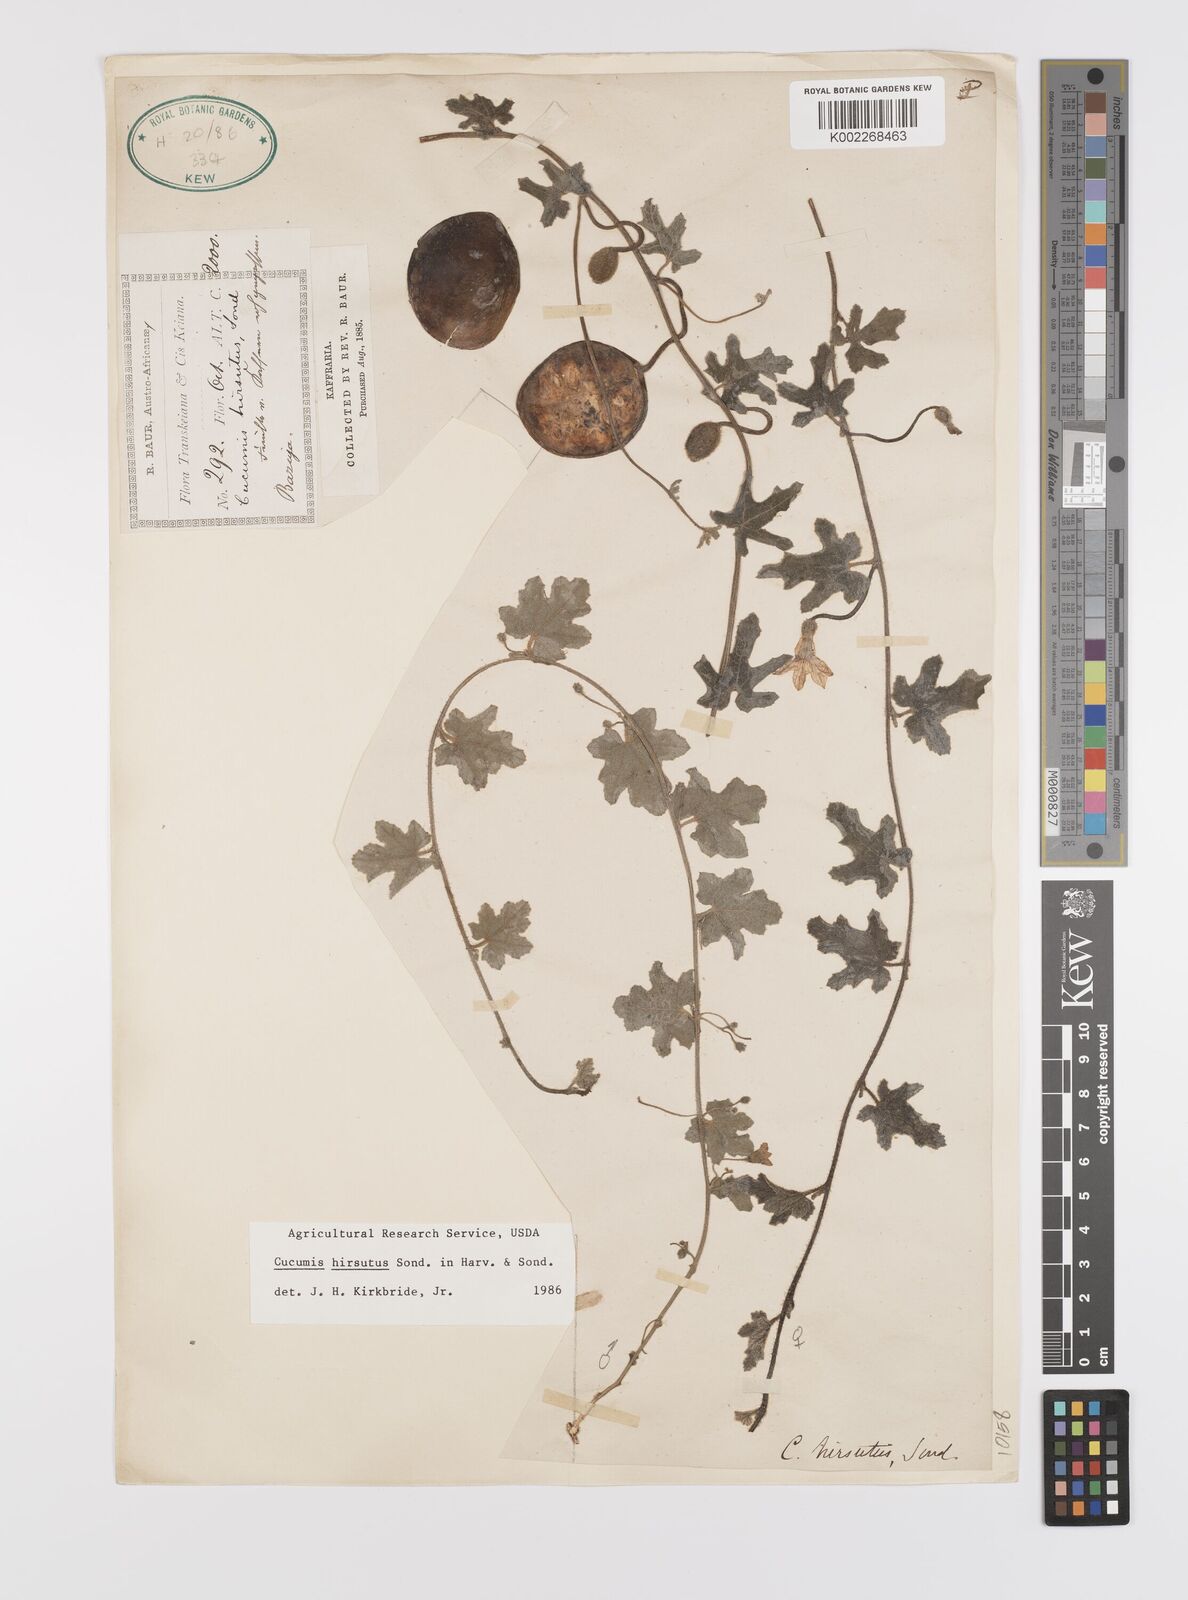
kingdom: Plantae
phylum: Tracheophyta
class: Magnoliopsida
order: Cucurbitales
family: Cucurbitaceae
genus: Cucumis
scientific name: Cucumis hirsutus
